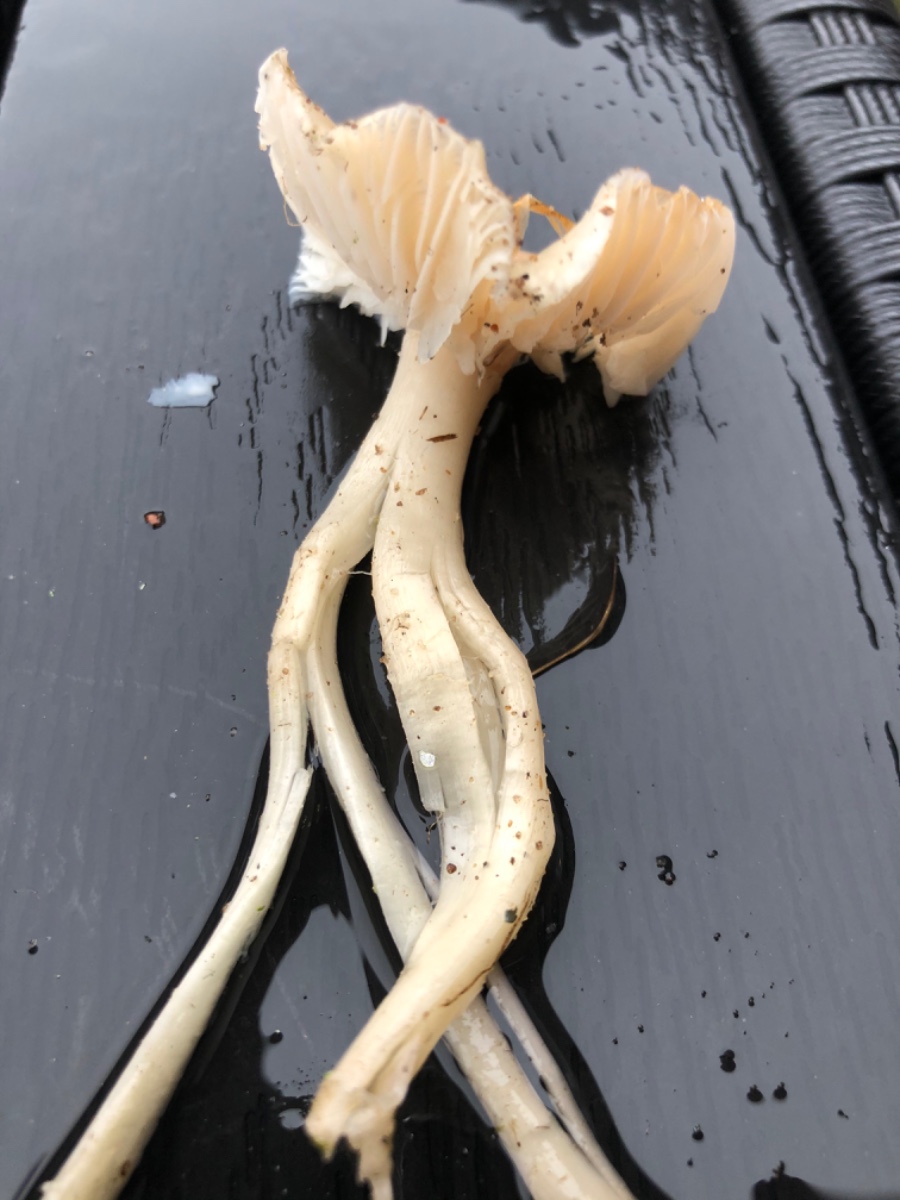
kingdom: Fungi
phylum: Basidiomycota
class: Agaricomycetes
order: Agaricales
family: Hygrophoraceae
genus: Cuphophyllus
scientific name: Cuphophyllus russocoriaceus
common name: ruslæder-vokshat
